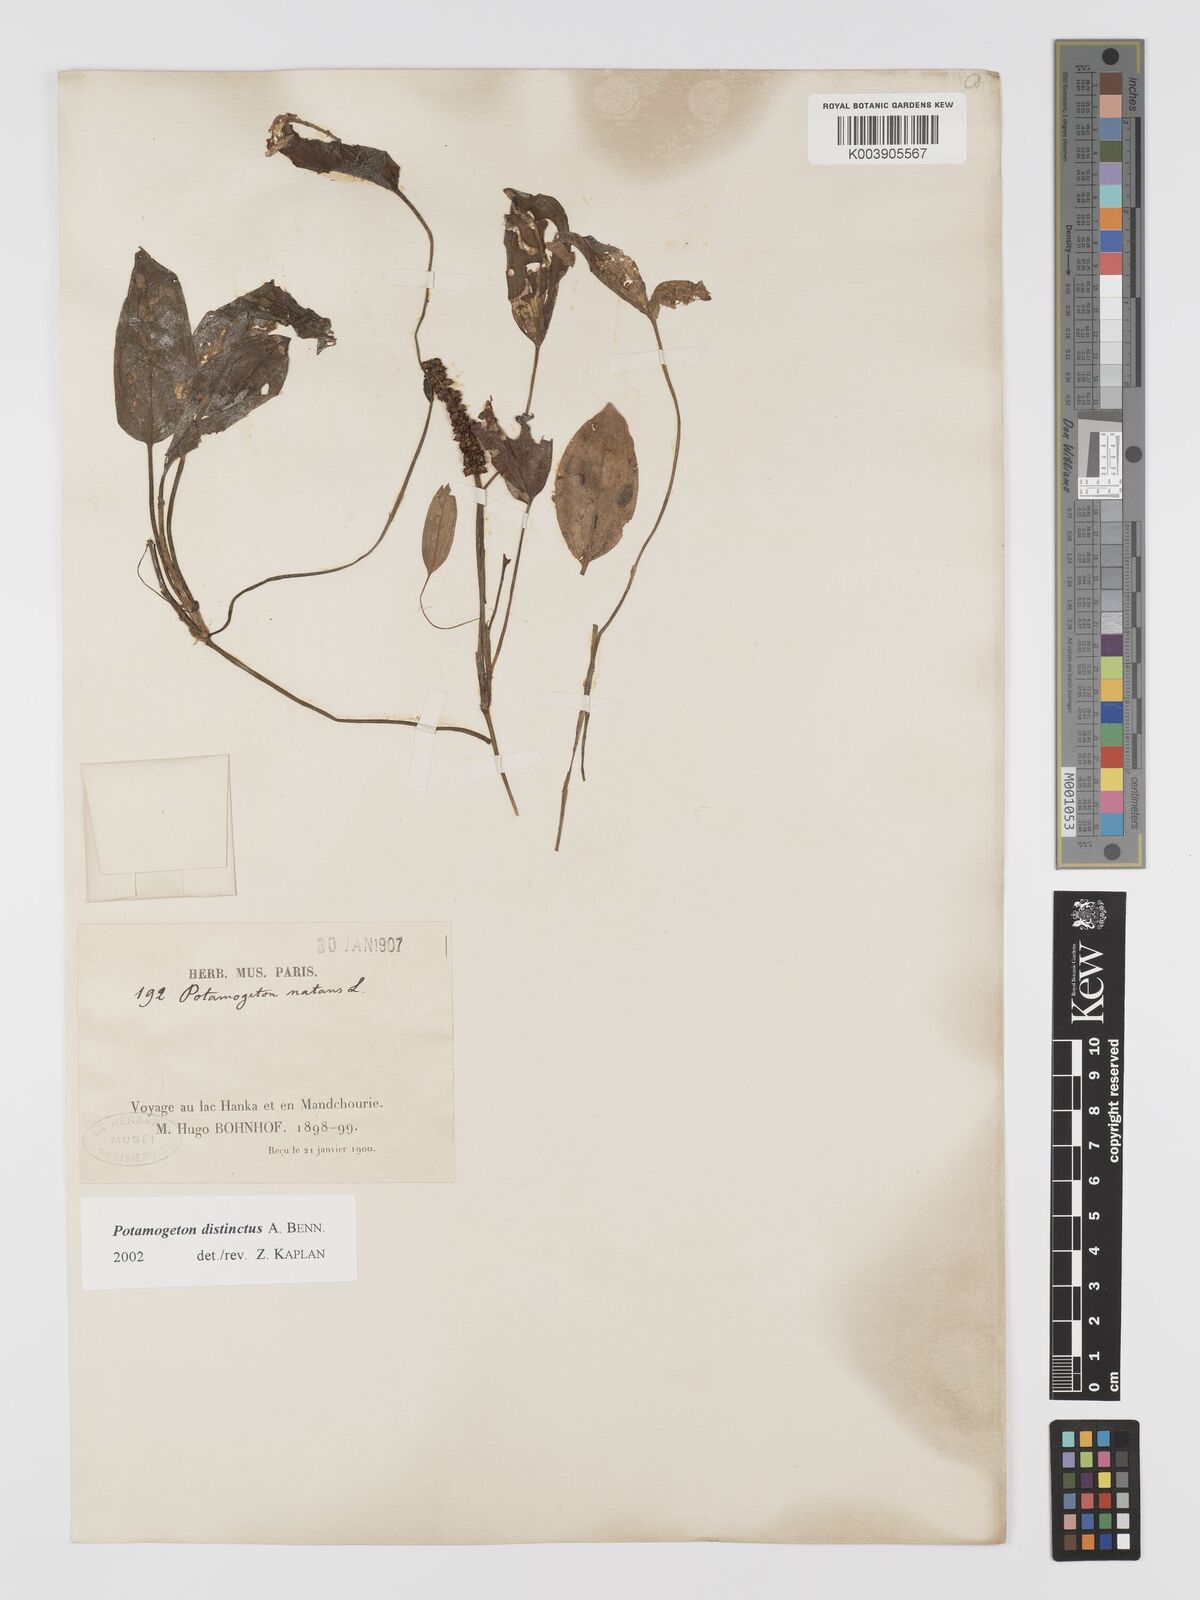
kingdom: Plantae
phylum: Tracheophyta
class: Liliopsida
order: Alismatales
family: Potamogetonaceae
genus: Potamogeton
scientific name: Potamogeton distinctus
